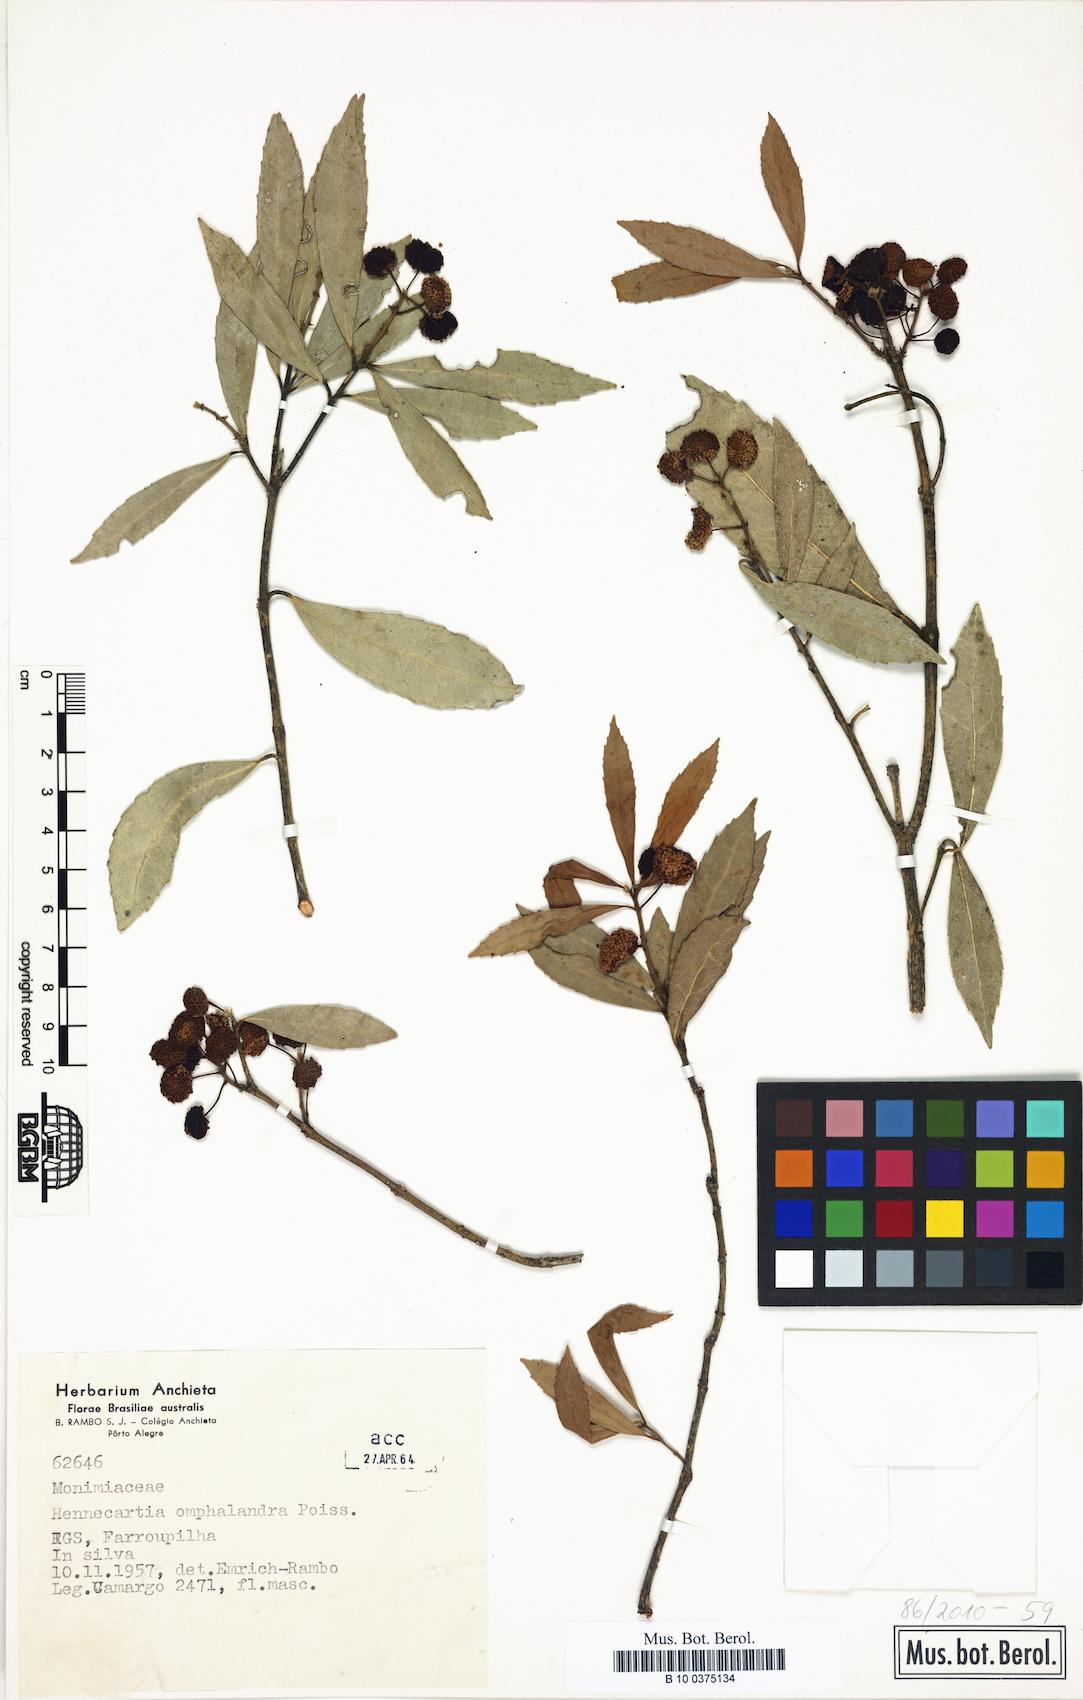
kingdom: Plantae
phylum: Tracheophyta
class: Magnoliopsida
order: Laurales
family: Monimiaceae
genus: Hennecartia
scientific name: Hennecartia omphalandra
